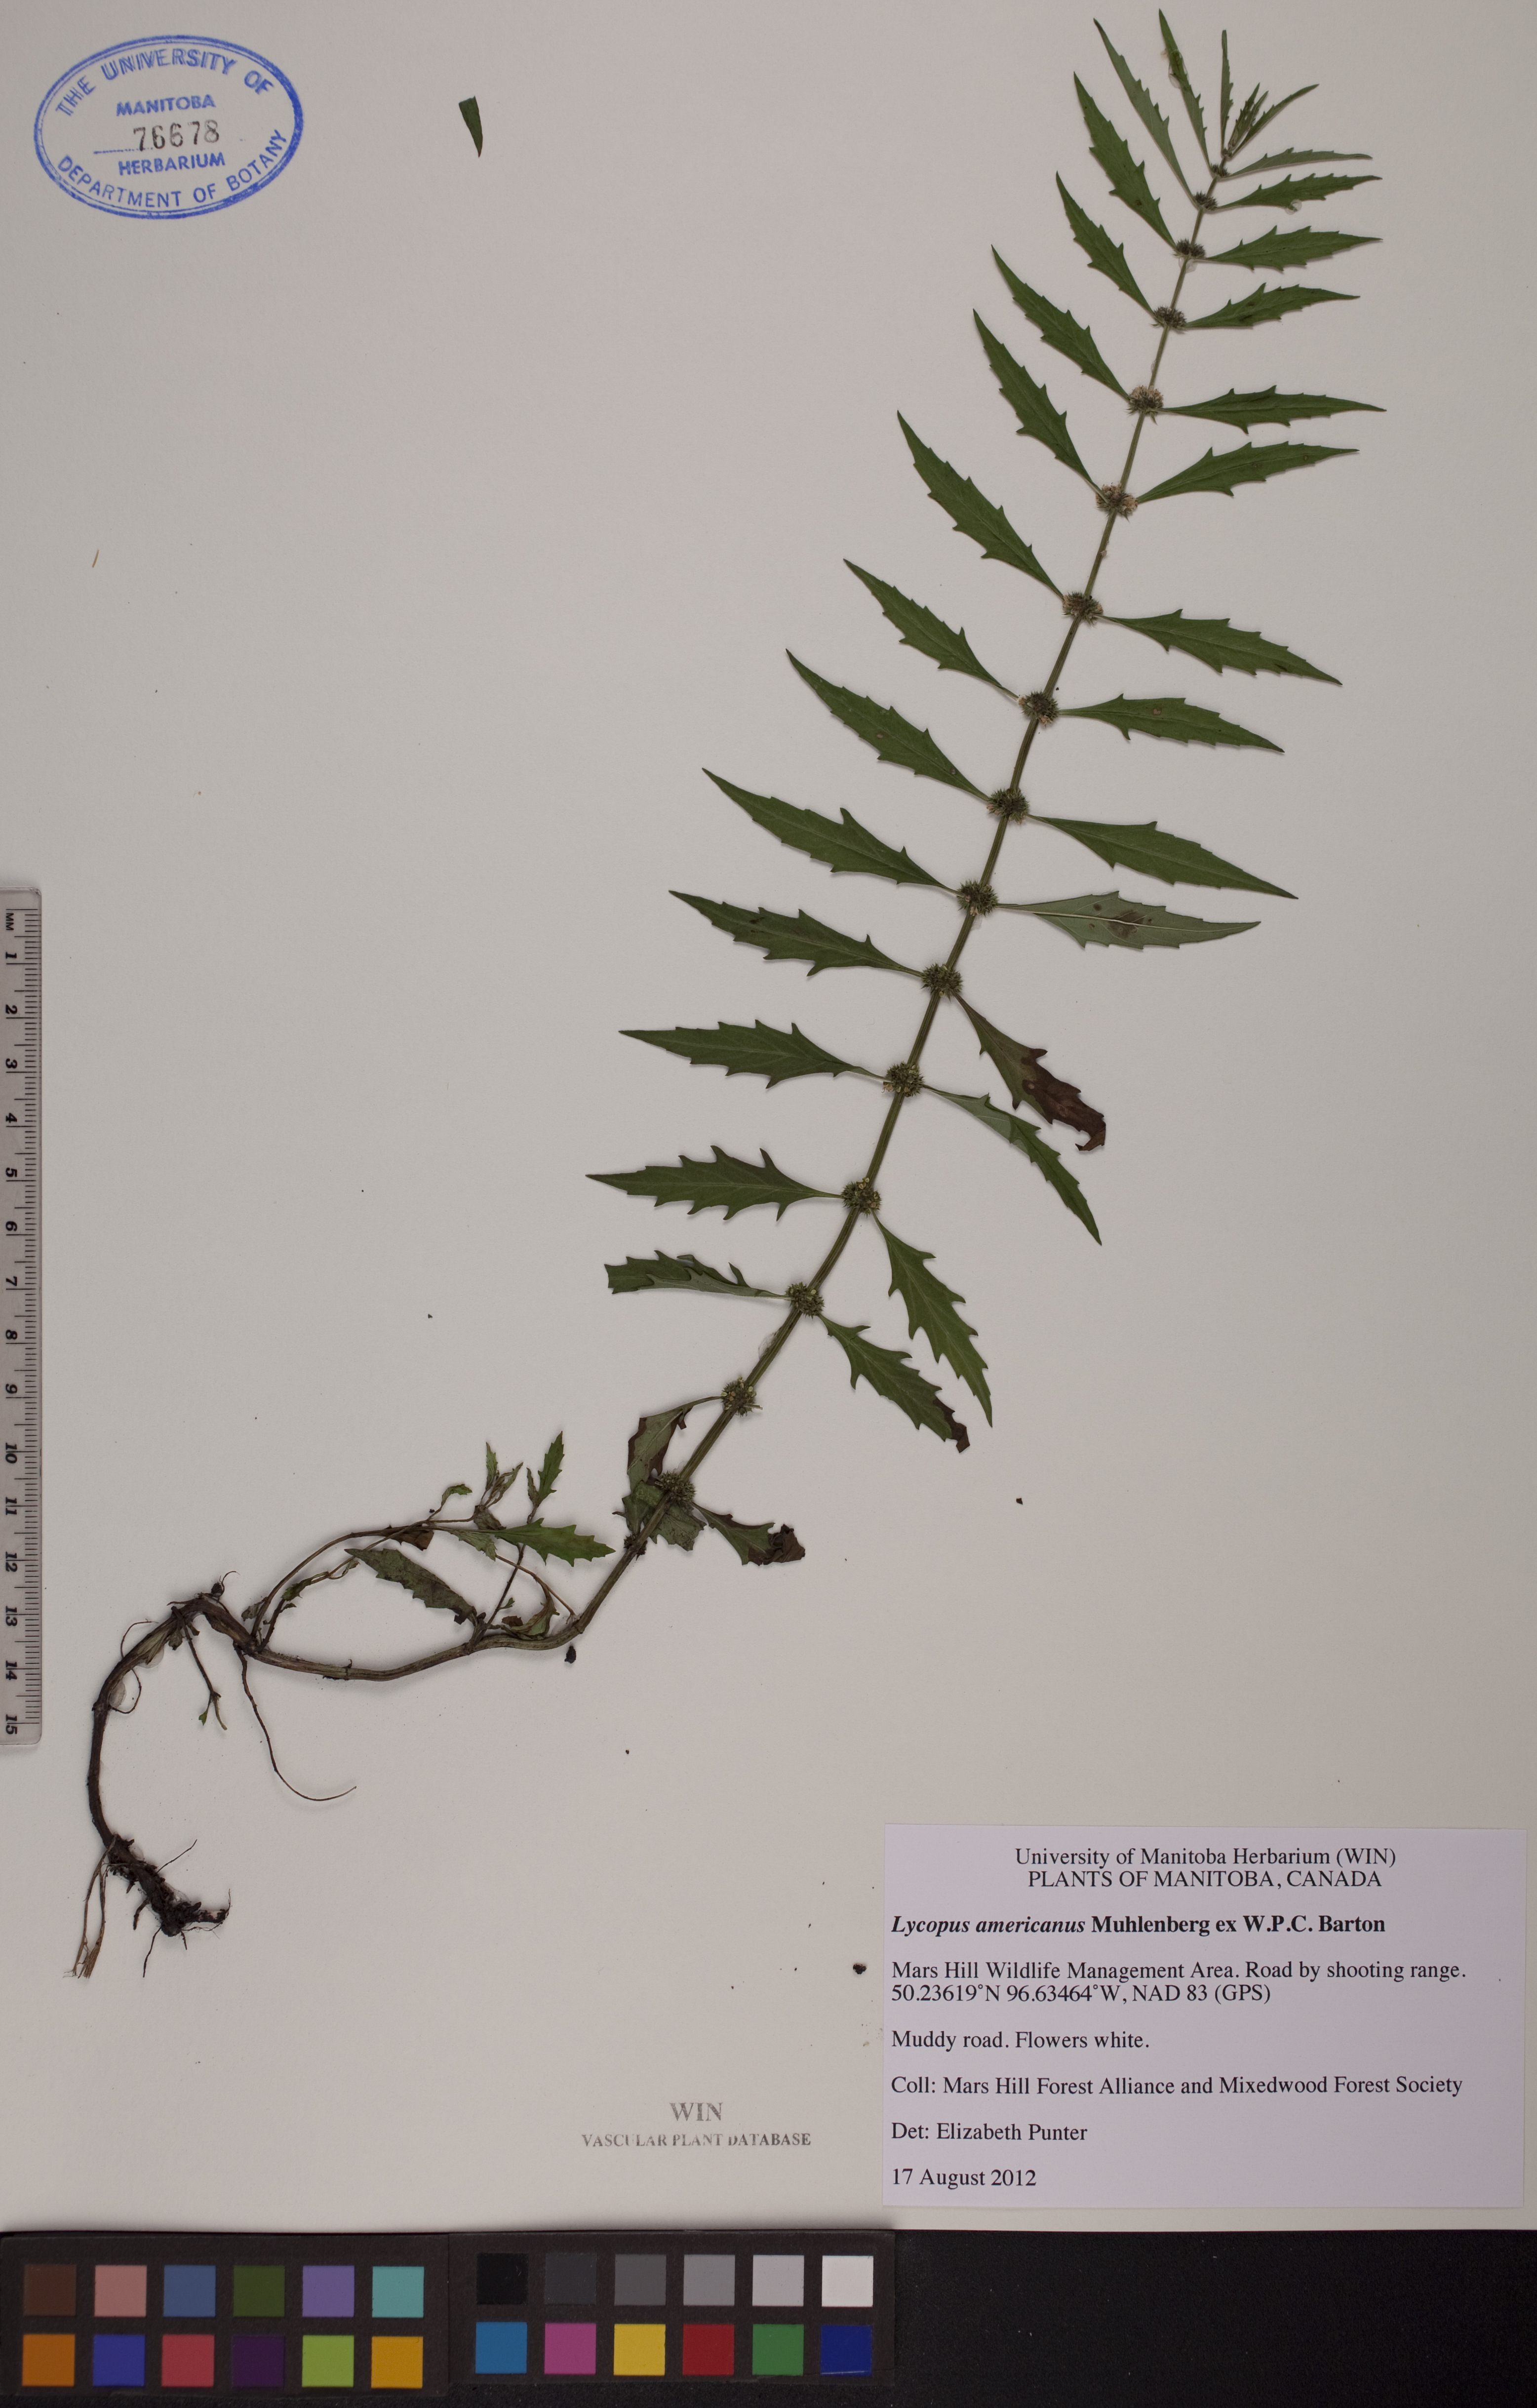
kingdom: Plantae
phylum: Tracheophyta
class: Magnoliopsida
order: Lamiales
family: Lamiaceae
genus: Lycopus
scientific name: Lycopus americanus
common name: American bugleweed
